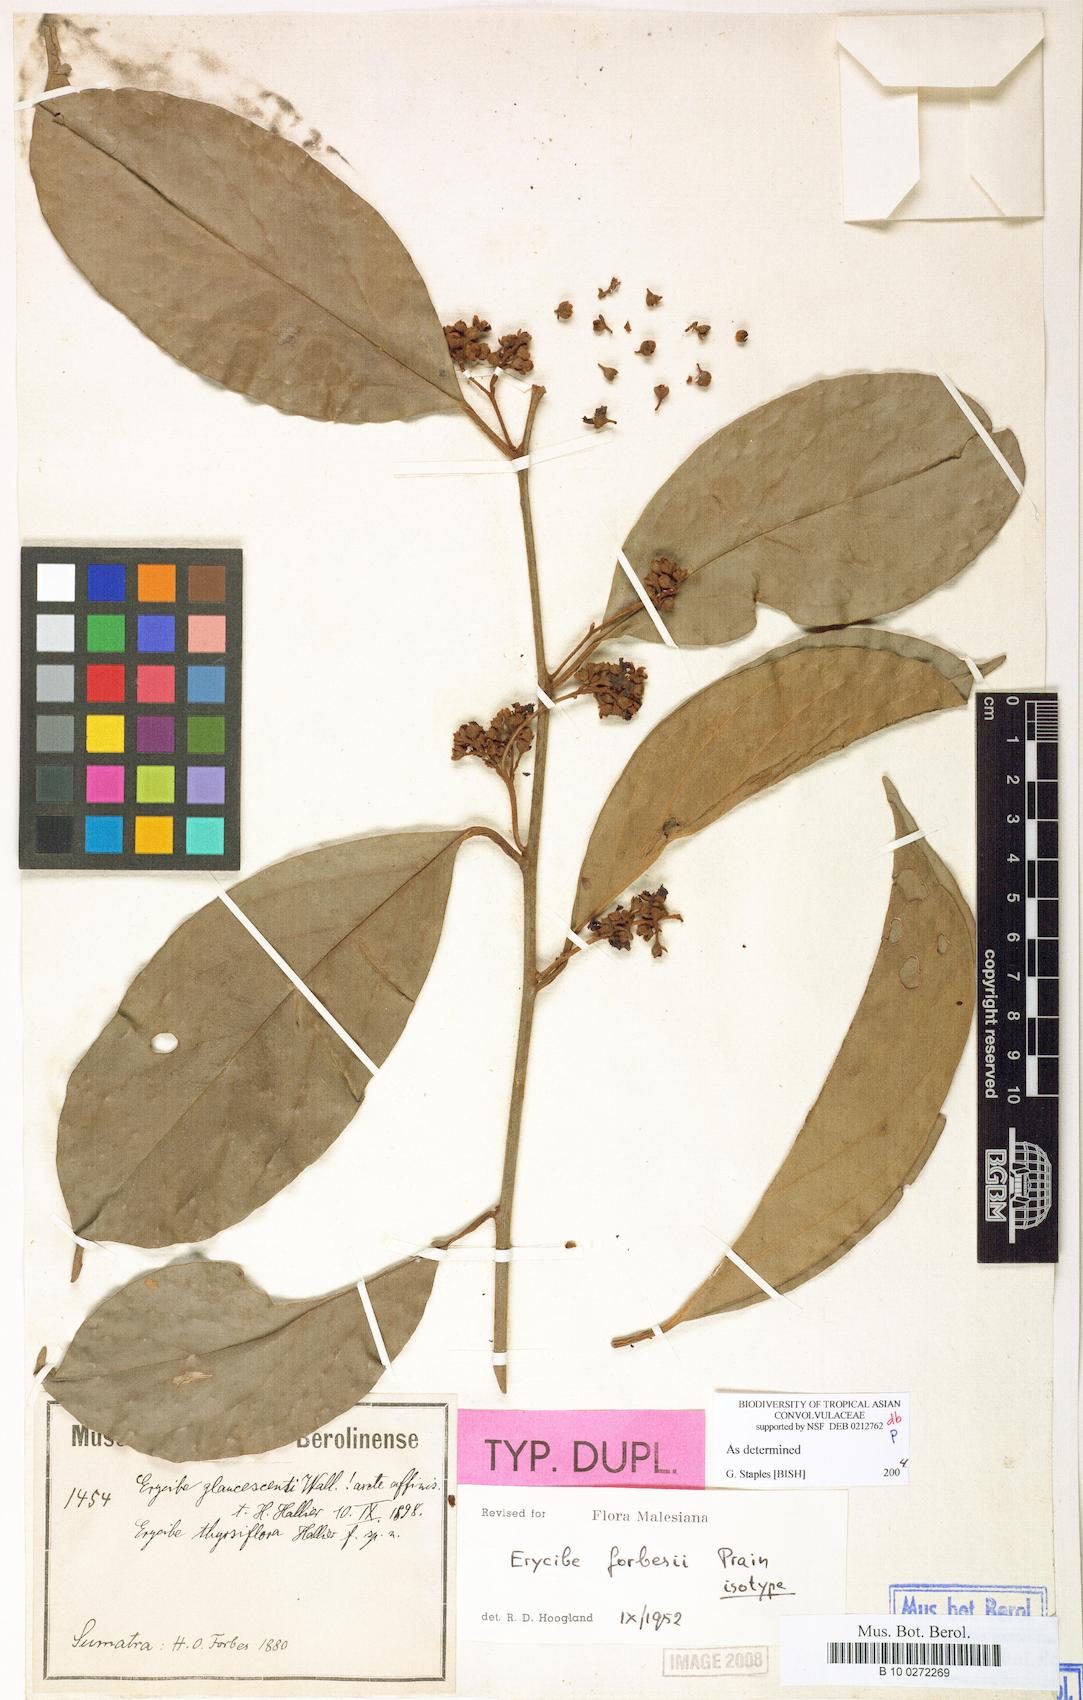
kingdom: Plantae
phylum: Tracheophyta
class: Magnoliopsida
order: Solanales
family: Convolvulaceae
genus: Erycibe
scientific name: Erycibe forbesii
